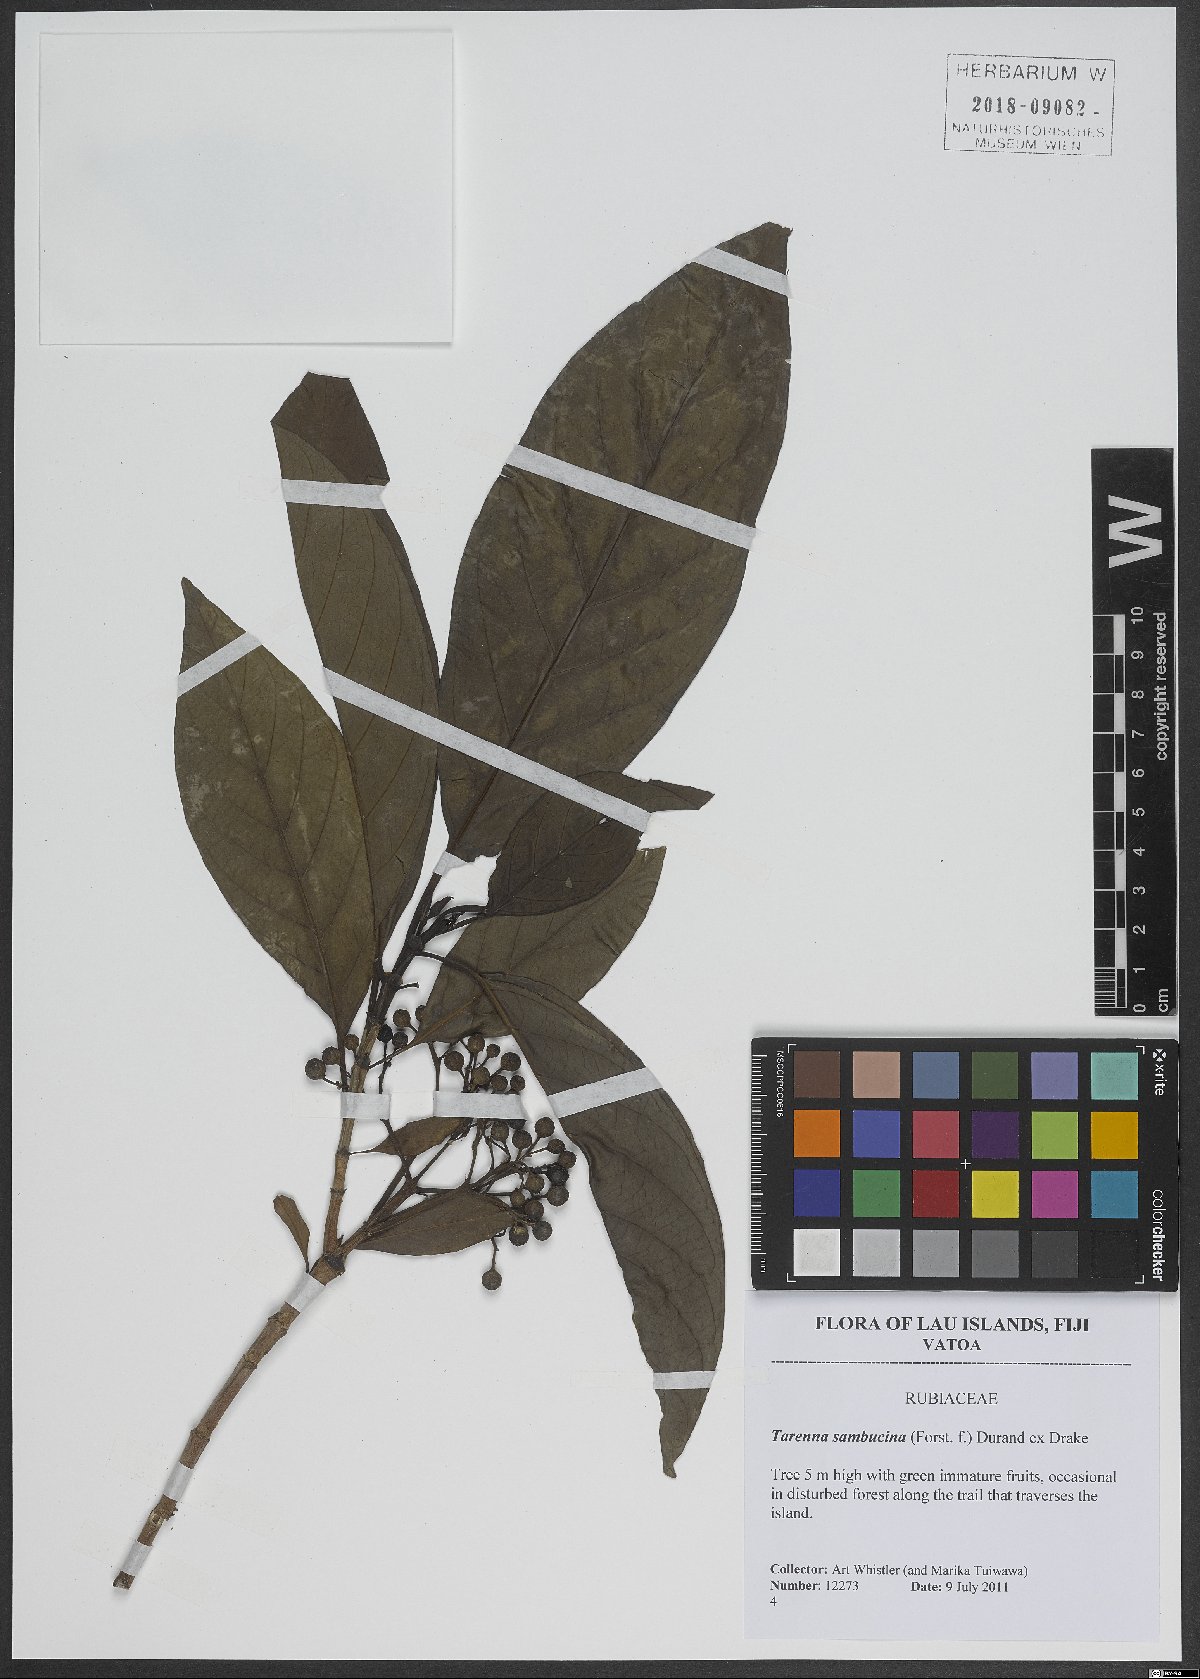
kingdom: Plantae
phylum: Tracheophyta
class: Magnoliopsida
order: Gentianales
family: Rubiaceae
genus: Tarenna
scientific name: Tarenna sambucina
